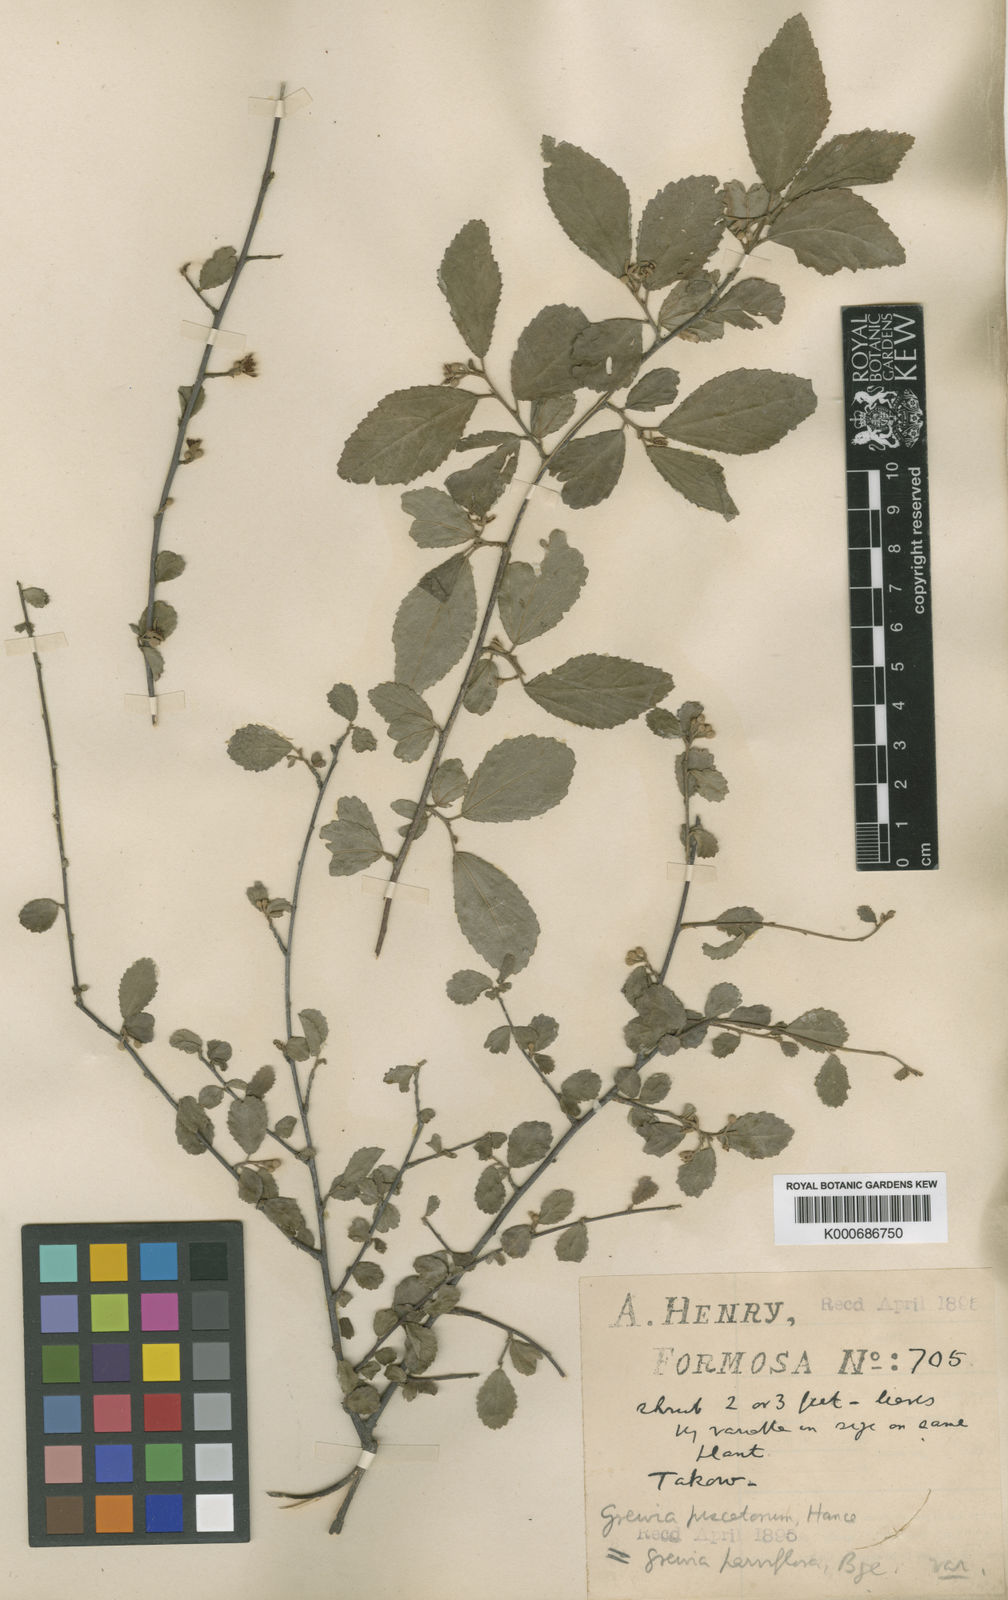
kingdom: Plantae
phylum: Tracheophyta
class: Magnoliopsida
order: Malvales
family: Malvaceae
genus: Grewia
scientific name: Grewia piscatorum
